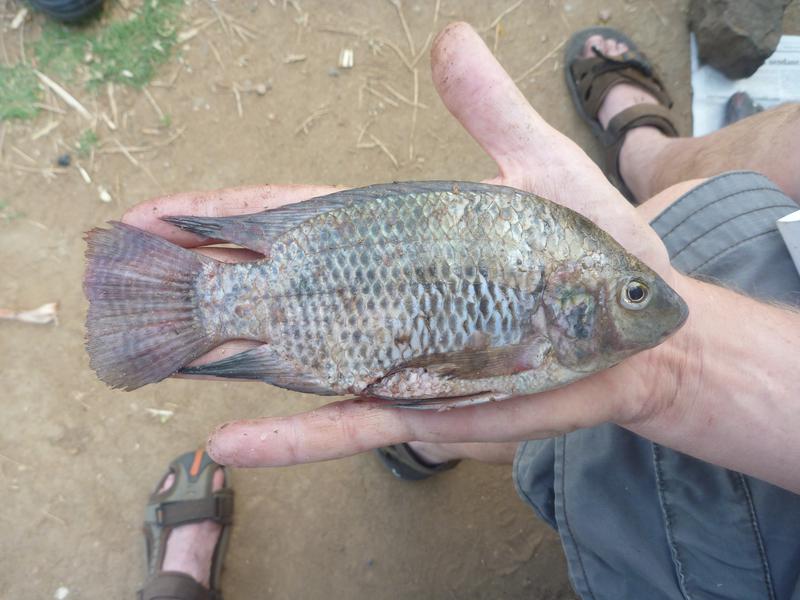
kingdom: Animalia
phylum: Chordata
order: Perciformes
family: Cichlidae
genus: Oreochromis
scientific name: Oreochromis urolepis
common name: Wami tilapia
